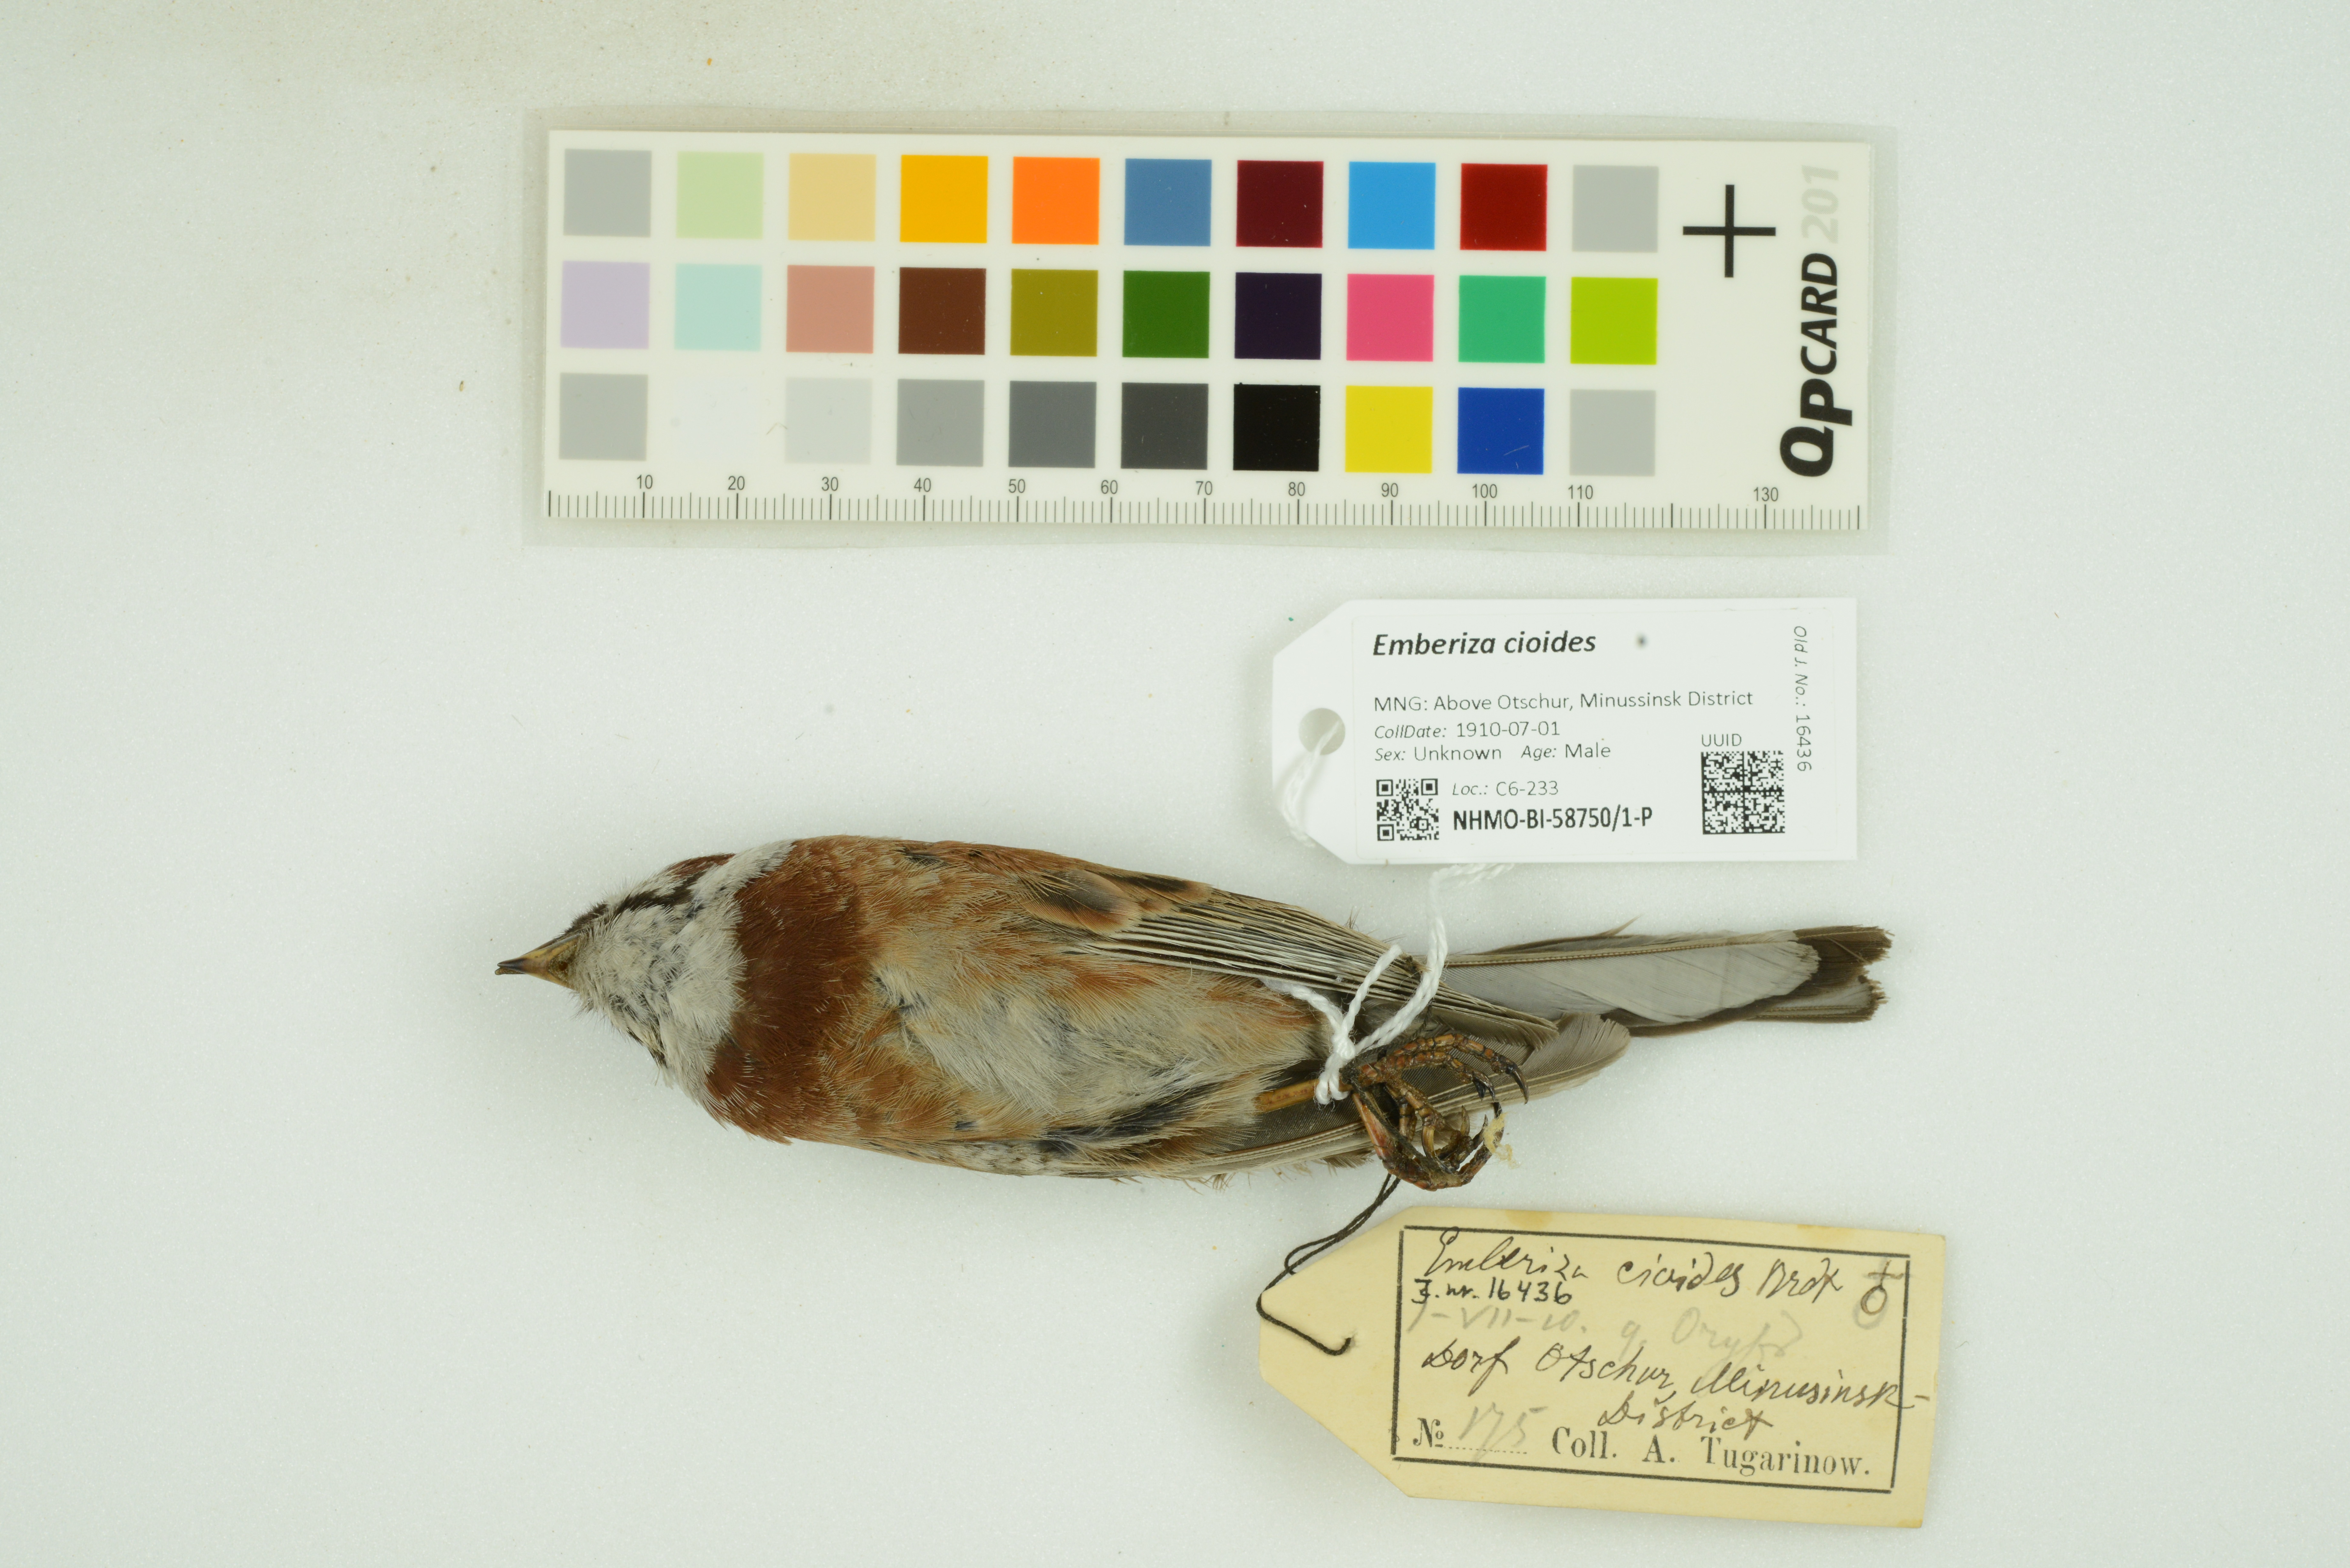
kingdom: Animalia
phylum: Chordata
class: Aves
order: Passeriformes
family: Emberizidae
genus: Emberiza
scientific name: Emberiza cioides
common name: Meadow bunting
